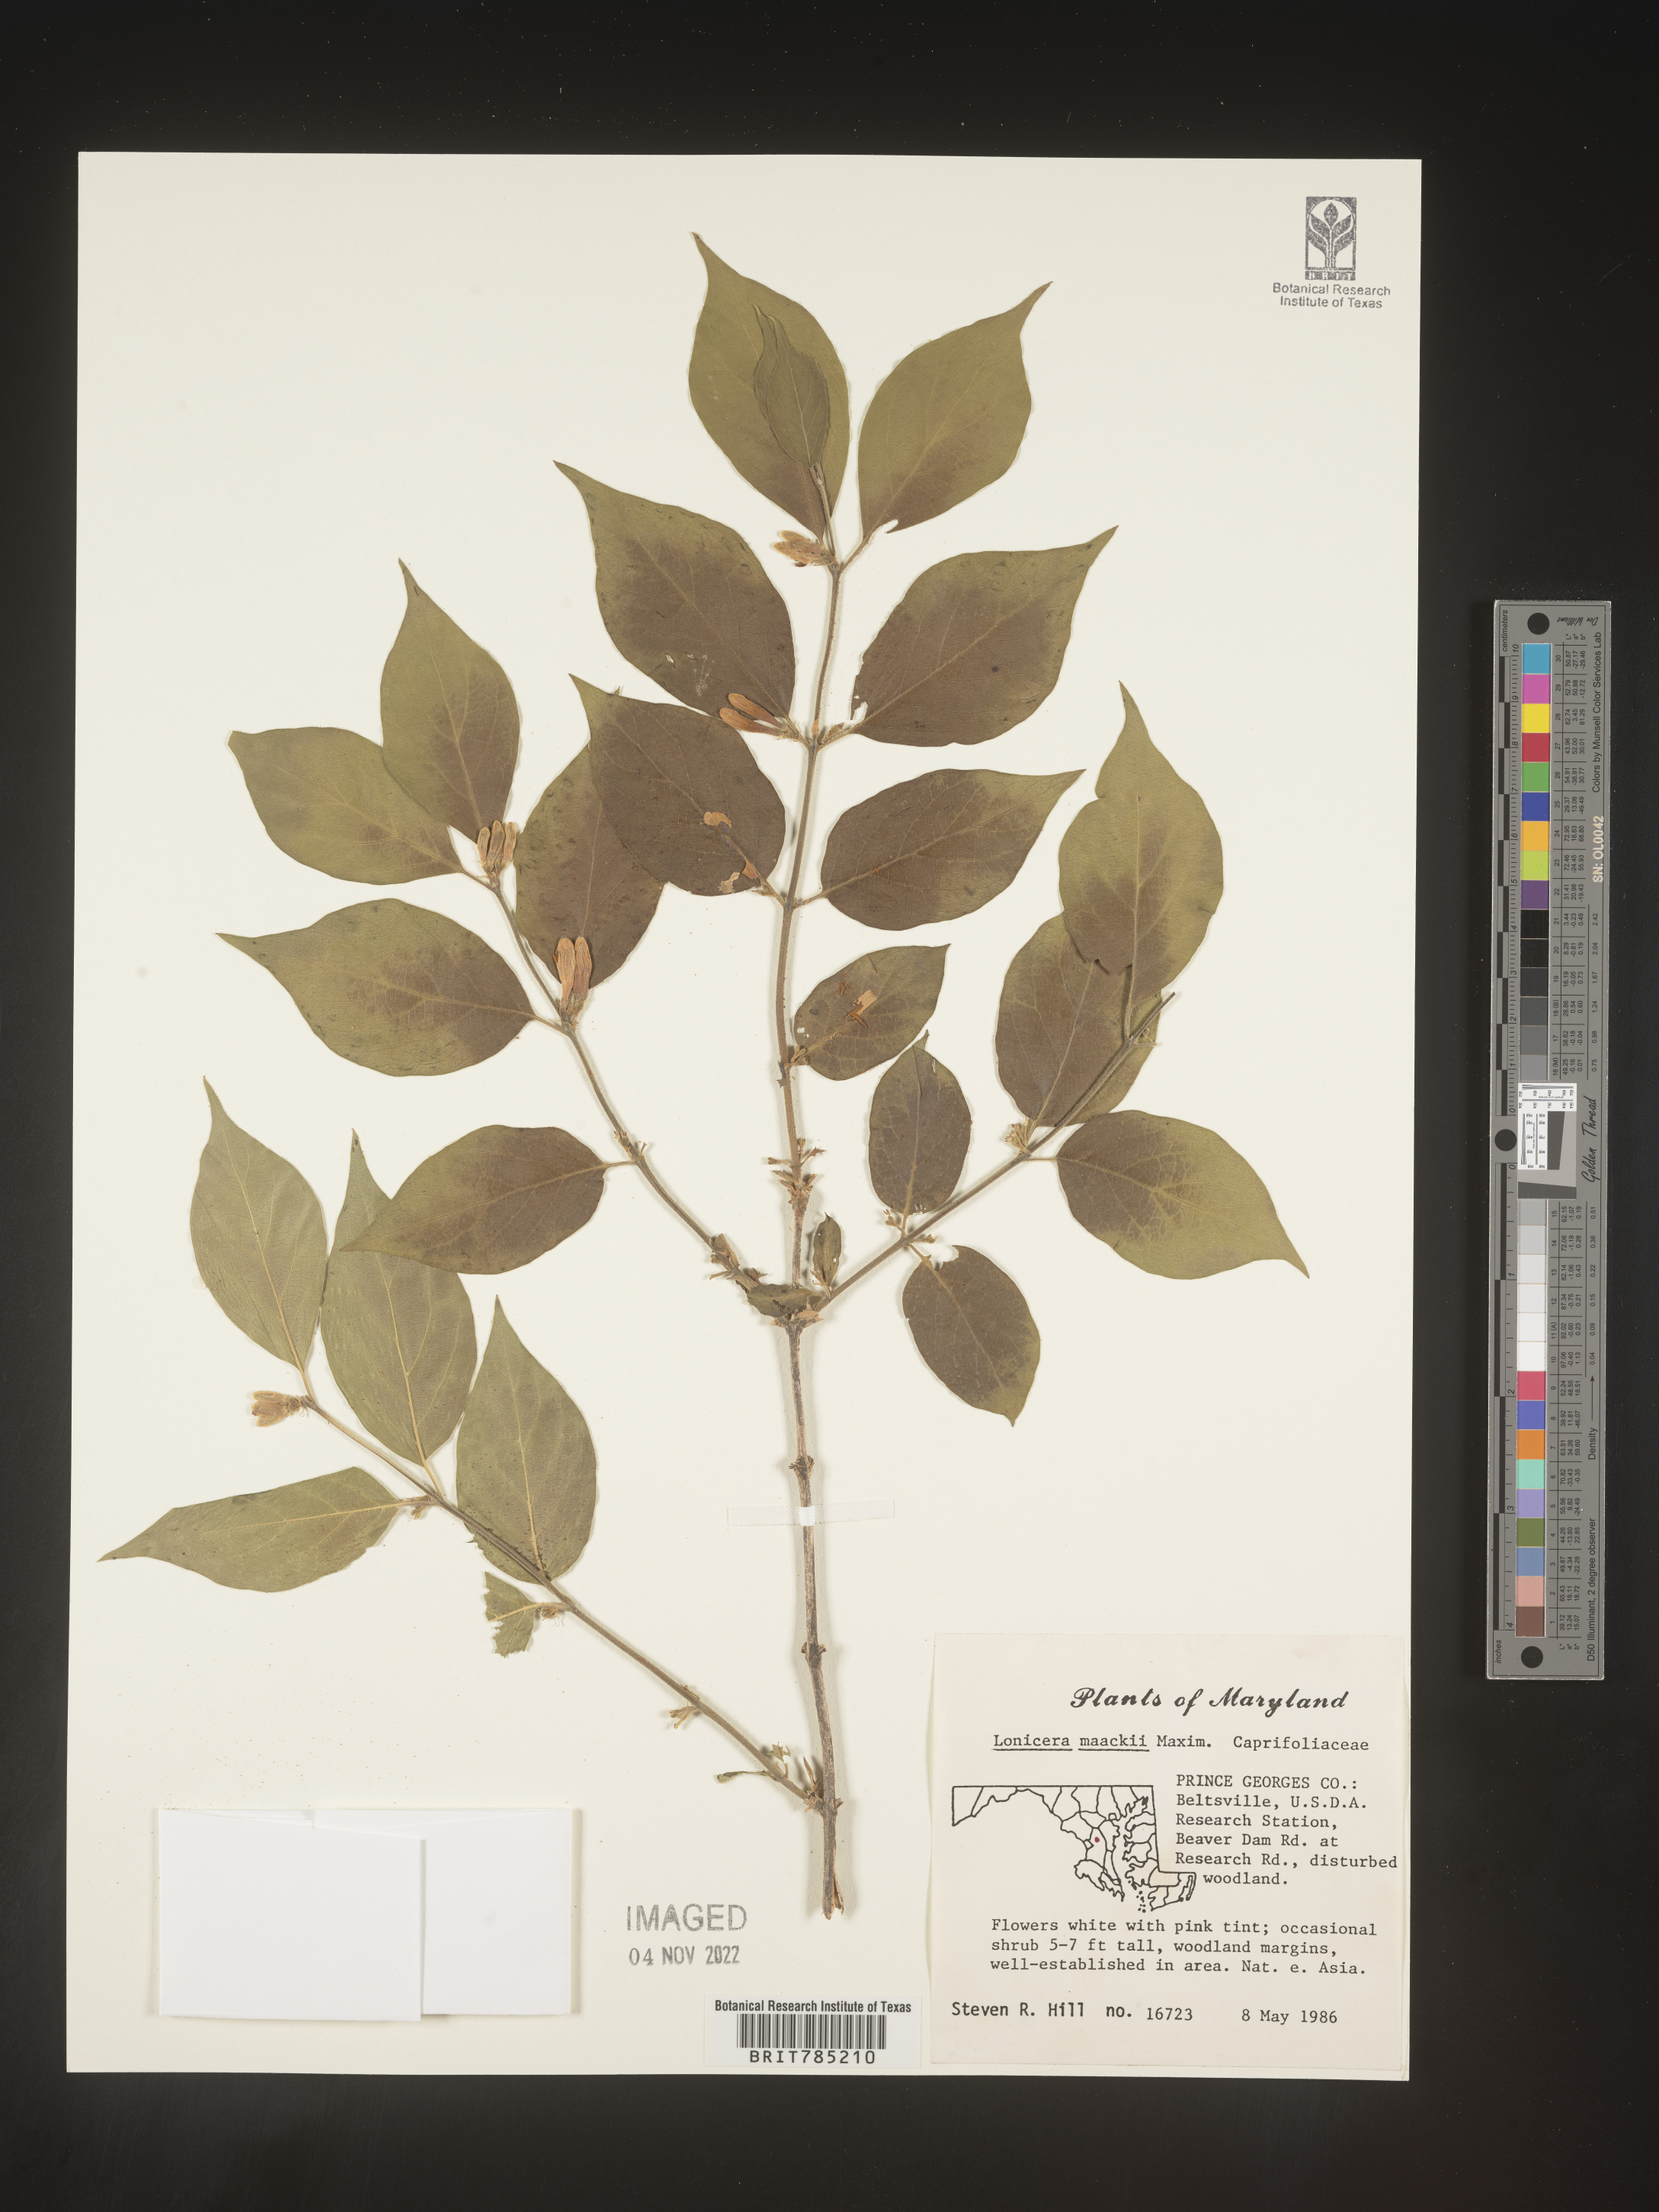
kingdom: Plantae
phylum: Tracheophyta
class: Magnoliopsida
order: Dipsacales
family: Caprifoliaceae
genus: Lonicera
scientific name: Lonicera
